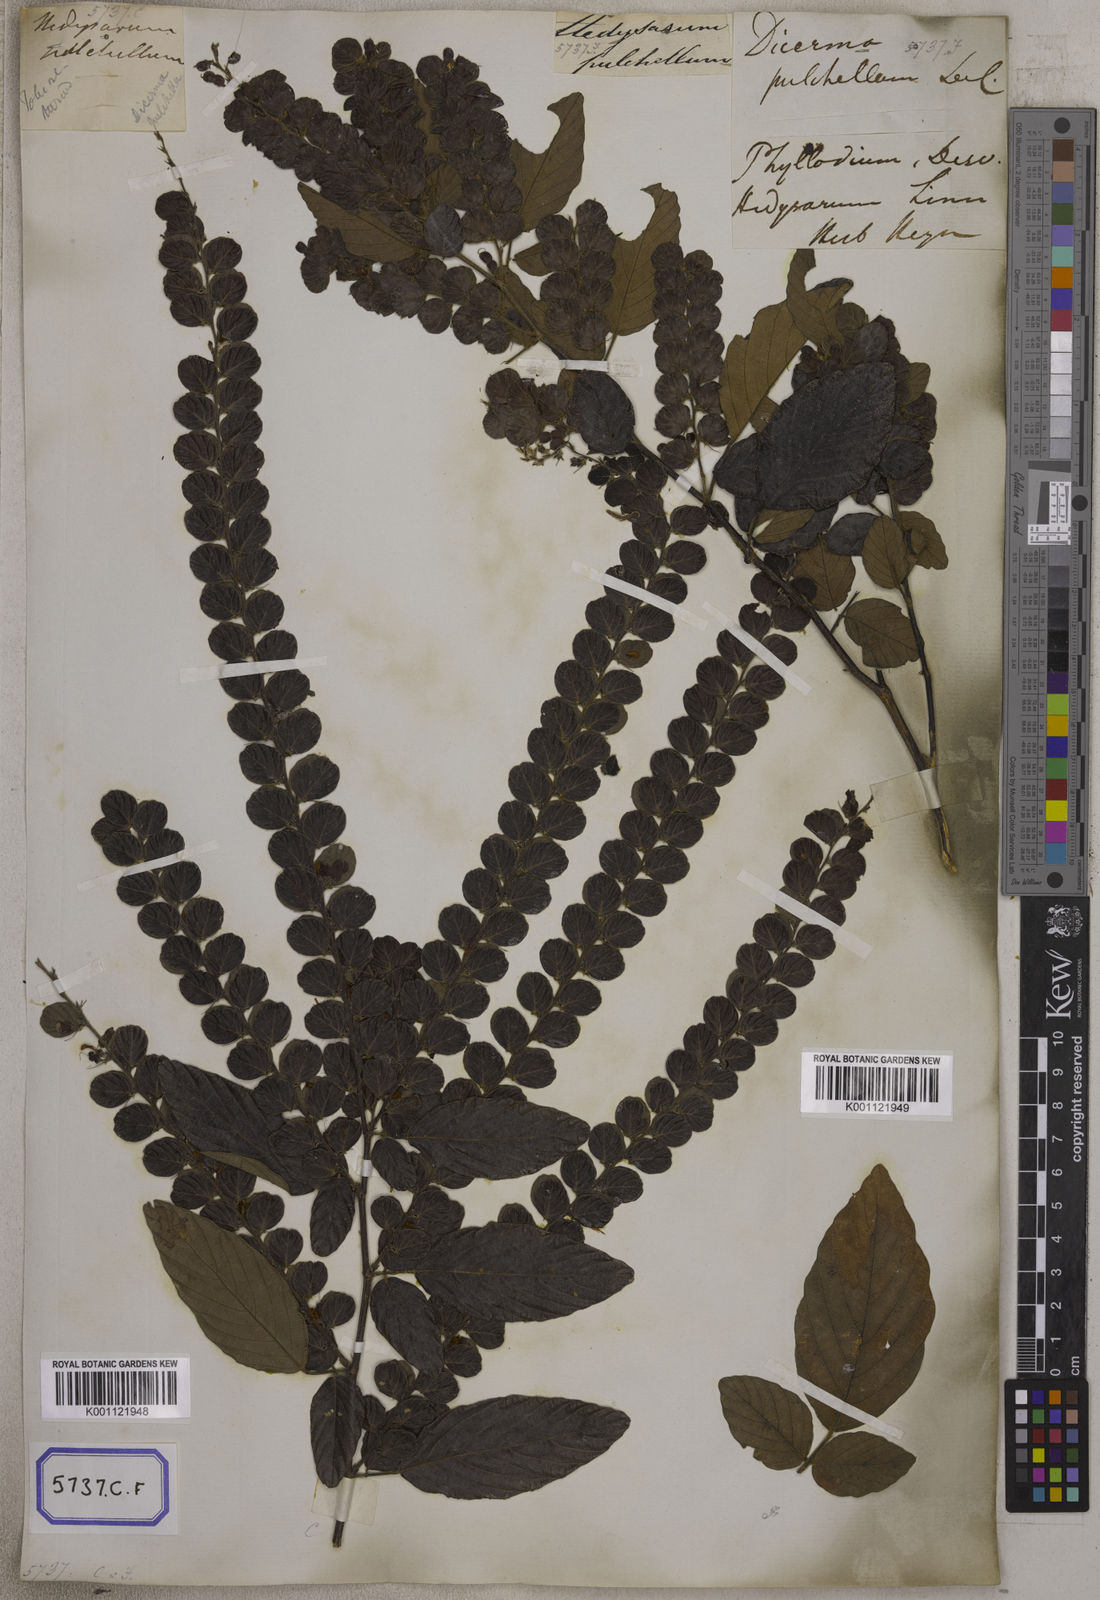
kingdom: Plantae
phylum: Tracheophyta
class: Magnoliopsida
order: Fabales
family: Fabaceae
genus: Phyllodium
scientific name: Phyllodium pulchellum
